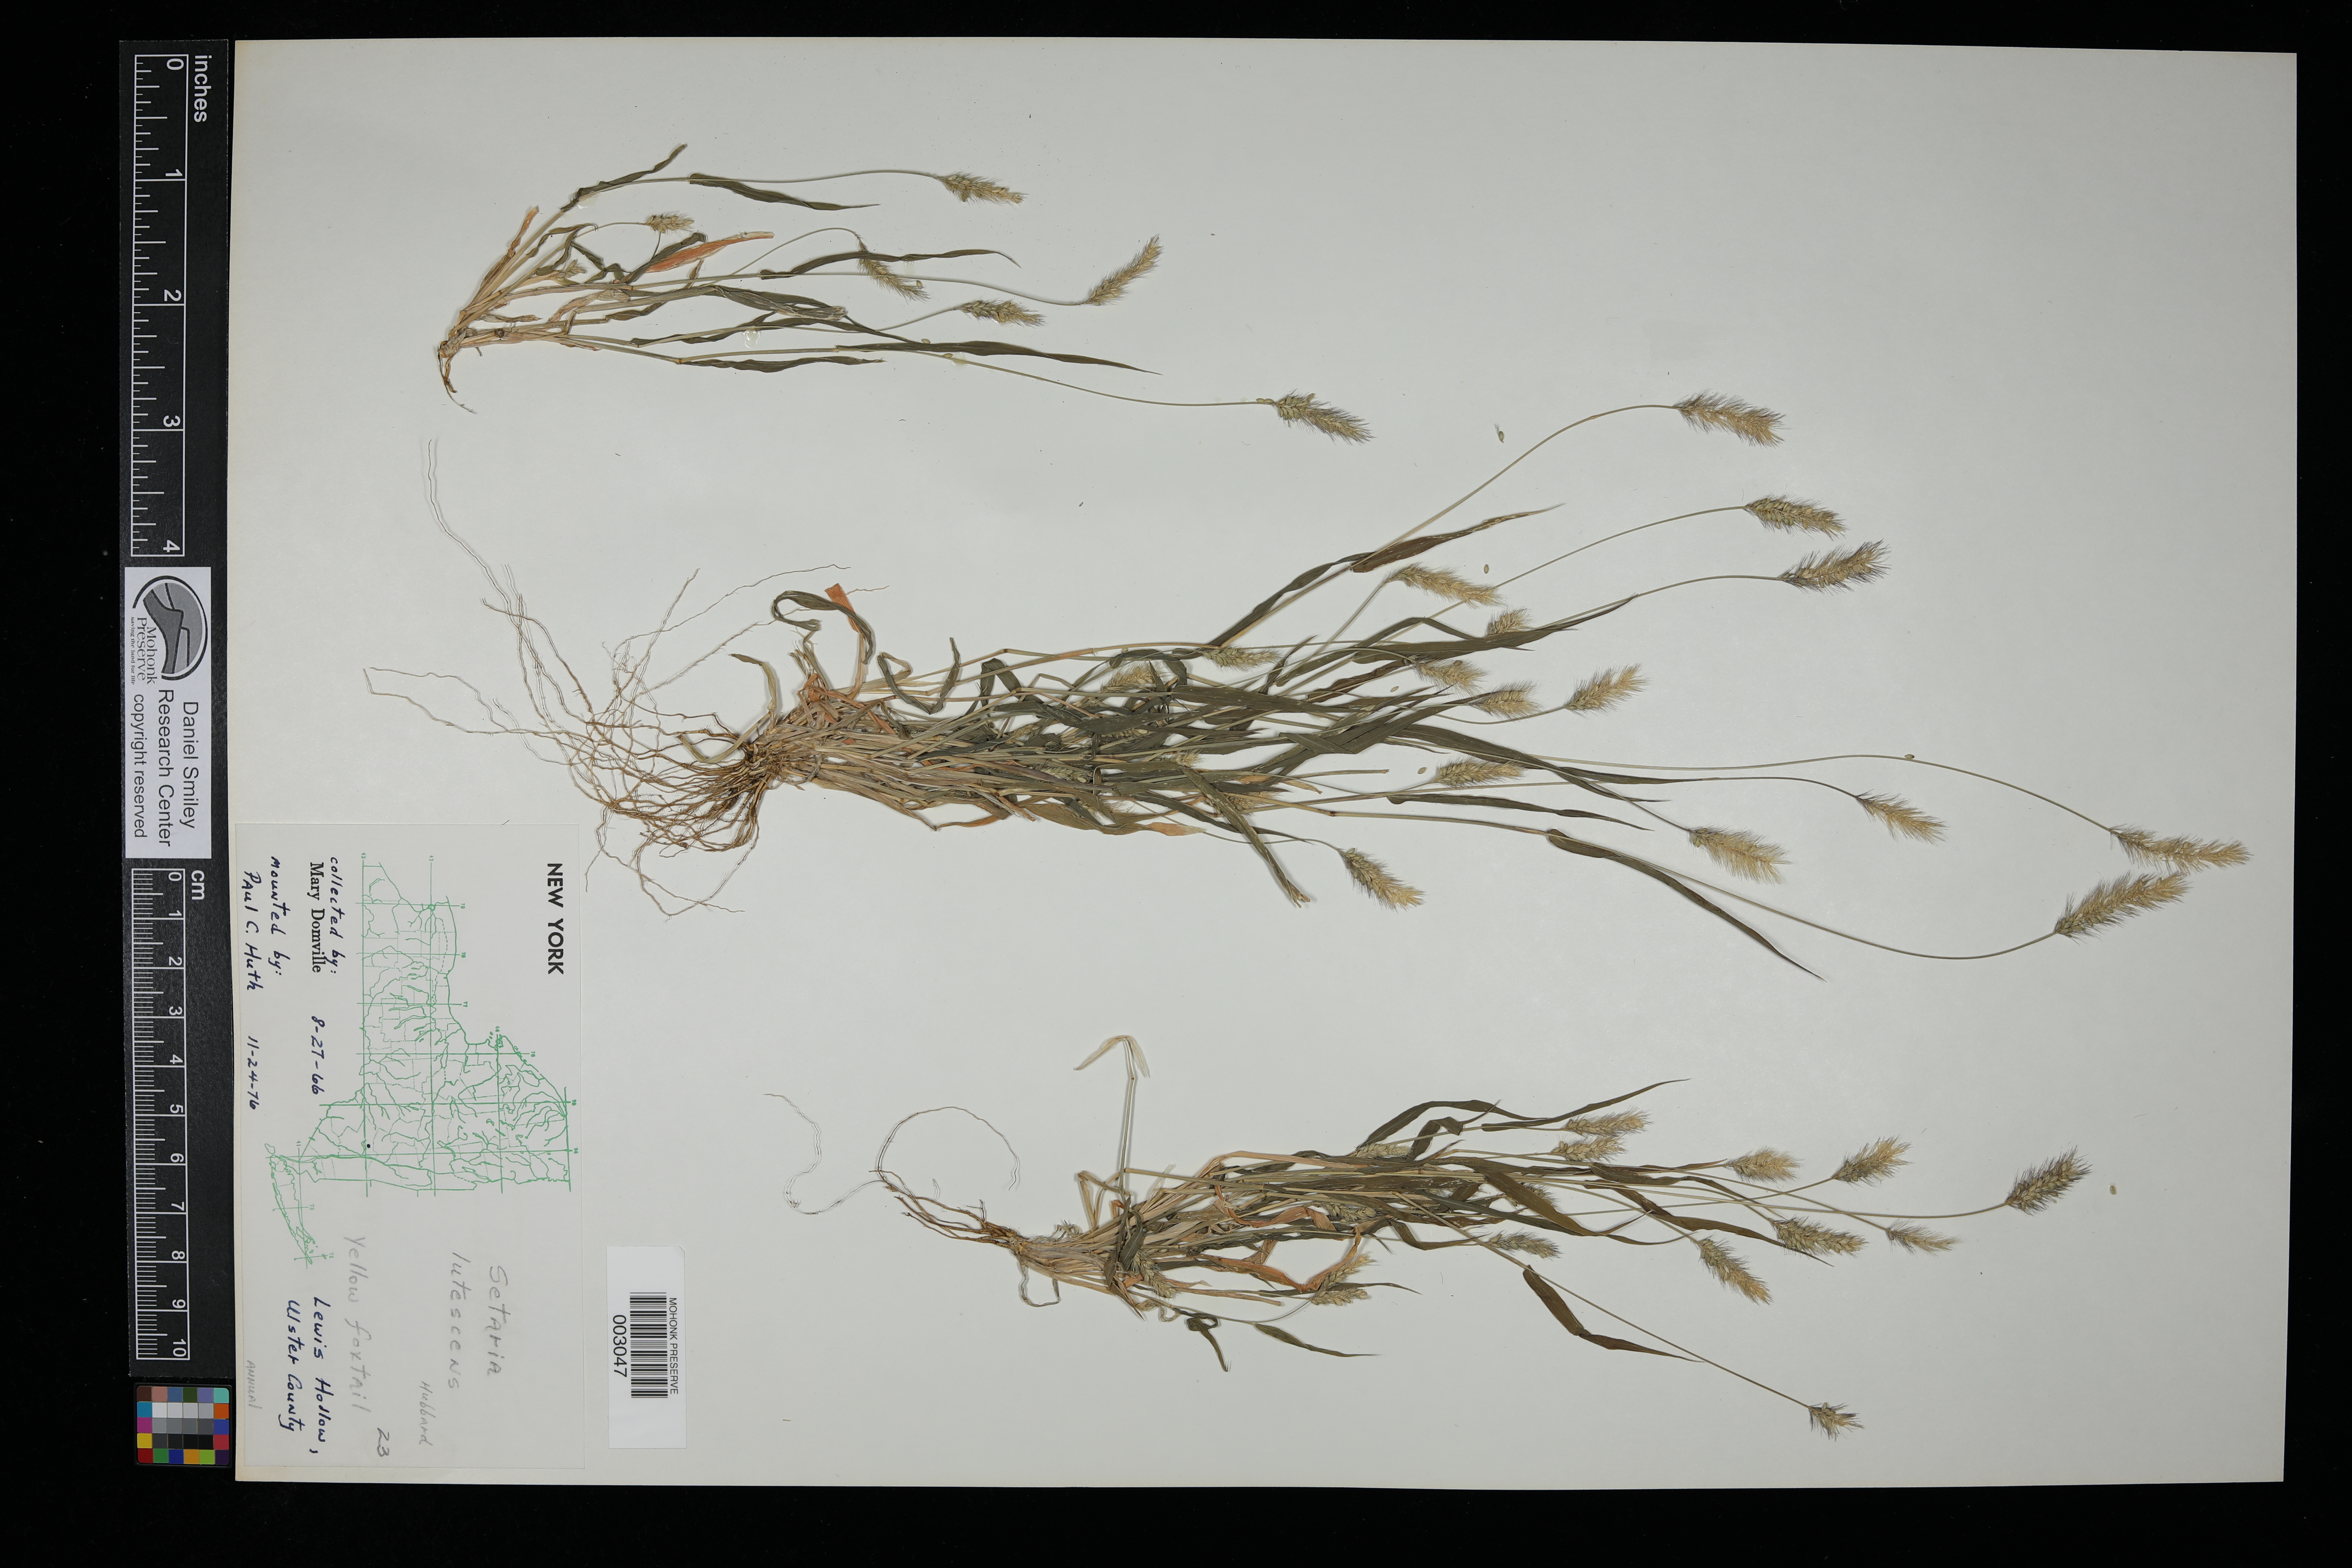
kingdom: Plantae
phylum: Tracheophyta
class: Liliopsida
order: Poales
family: Poaceae
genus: Cenchrus
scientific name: Cenchrus americanus
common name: Pearl millet
